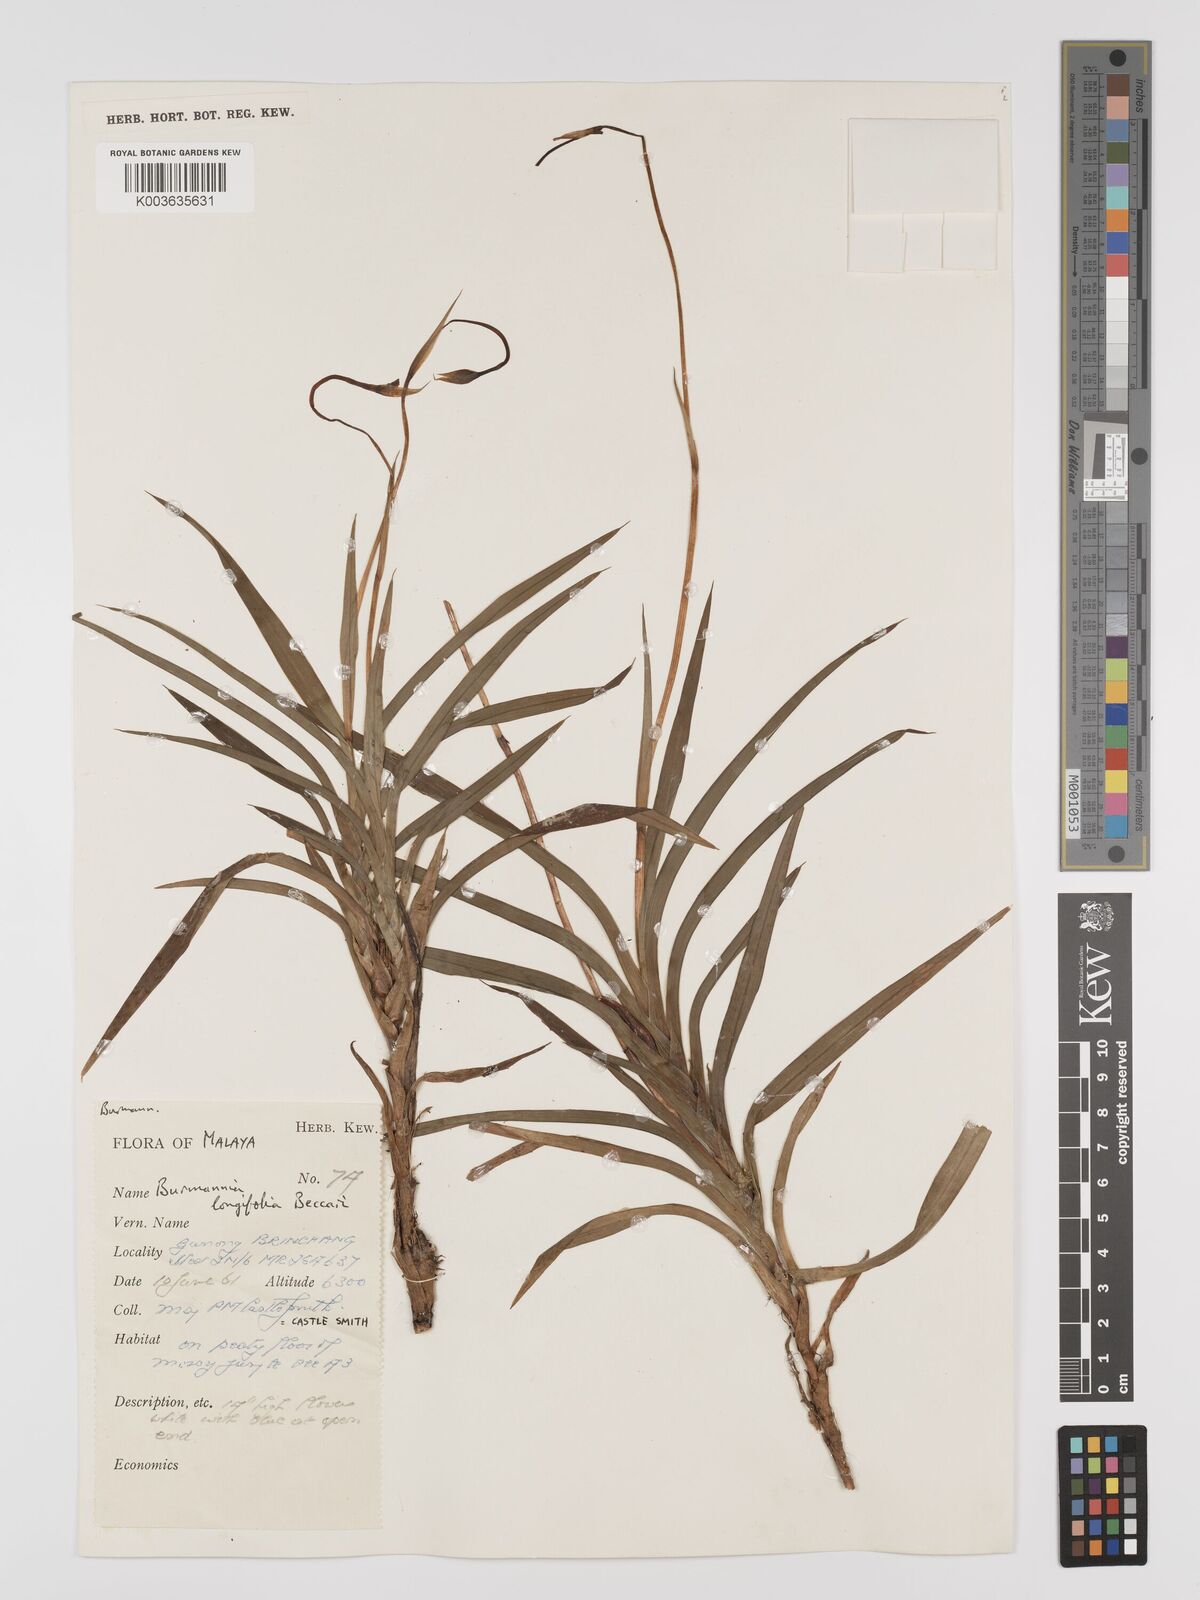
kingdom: Plantae
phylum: Tracheophyta
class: Liliopsida
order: Dioscoreales
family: Burmanniaceae
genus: Burmannia
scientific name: Burmannia longifolia
